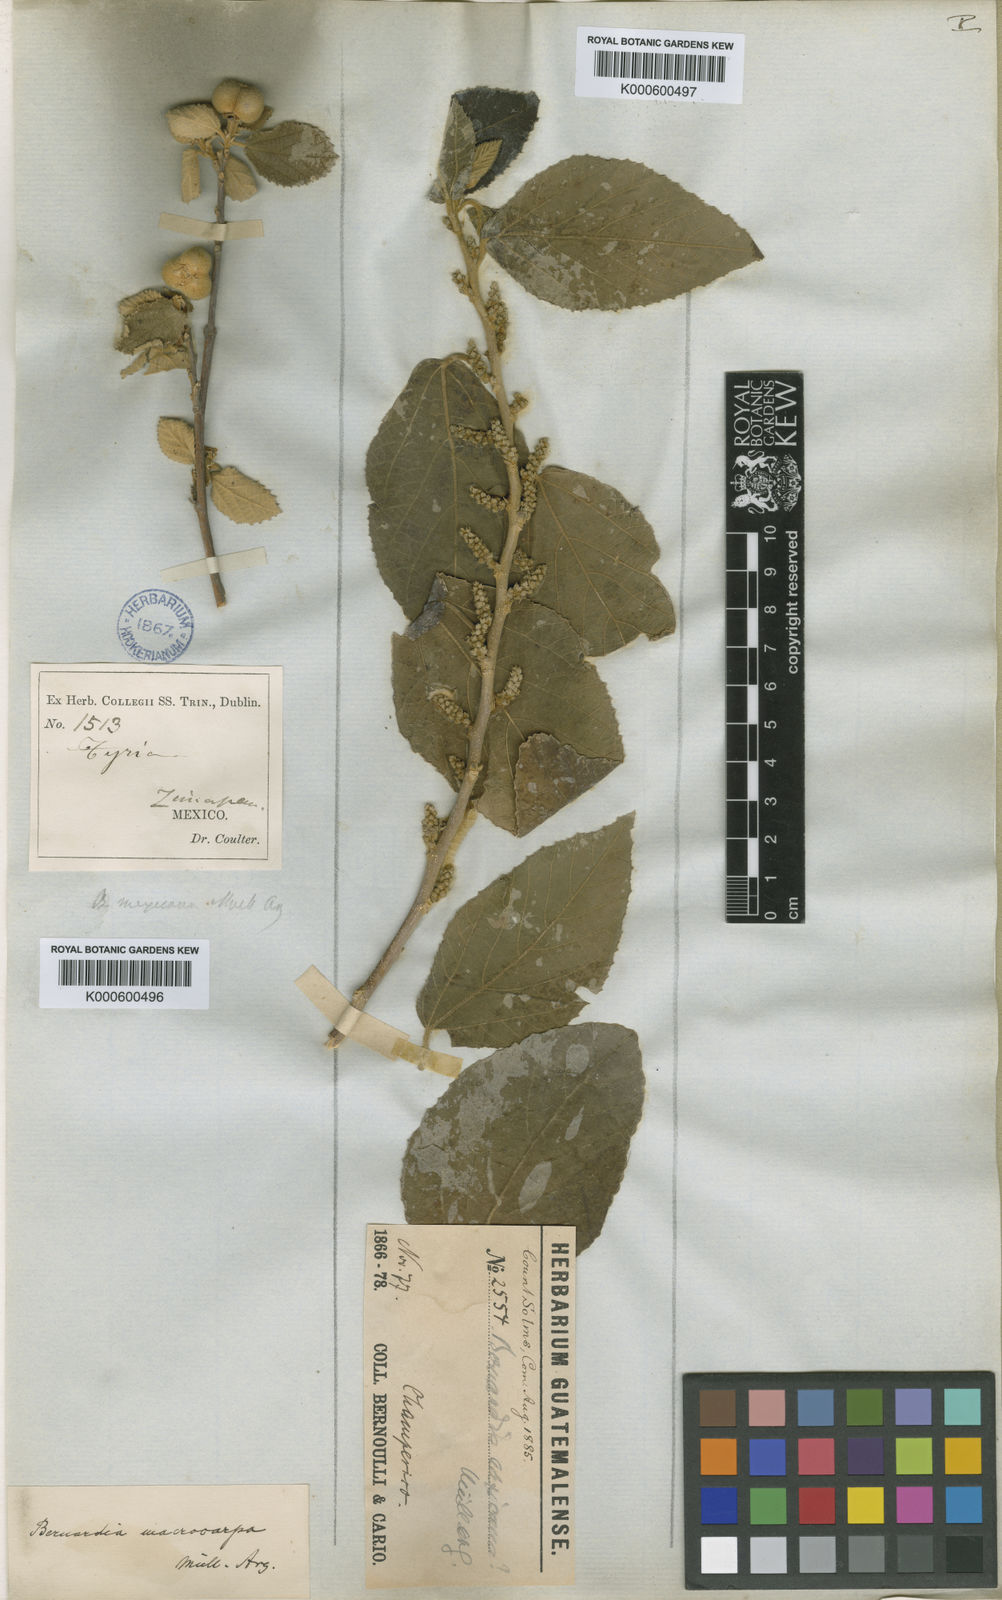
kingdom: Plantae
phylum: Tracheophyta
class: Magnoliopsida
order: Malpighiales
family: Euphorbiaceae
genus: Bernardia
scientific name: Bernardia
